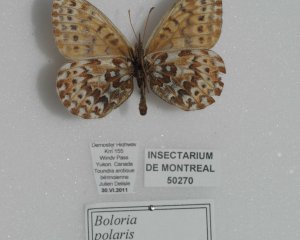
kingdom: Animalia
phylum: Arthropoda
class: Insecta
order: Lepidoptera
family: Nymphalidae
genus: Clossiana
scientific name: Clossiana polaris
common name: Polaris Fritillary
